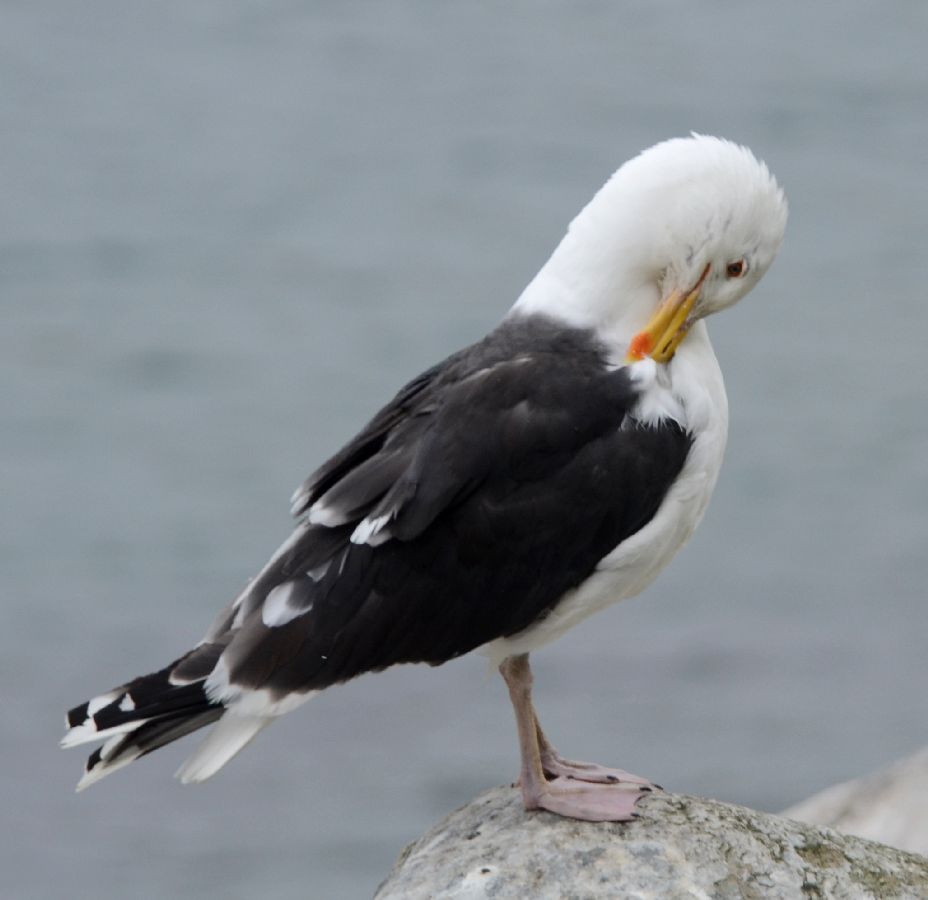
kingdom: Animalia
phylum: Chordata
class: Aves
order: Charadriiformes
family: Laridae
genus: Larus
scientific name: Larus marinus
